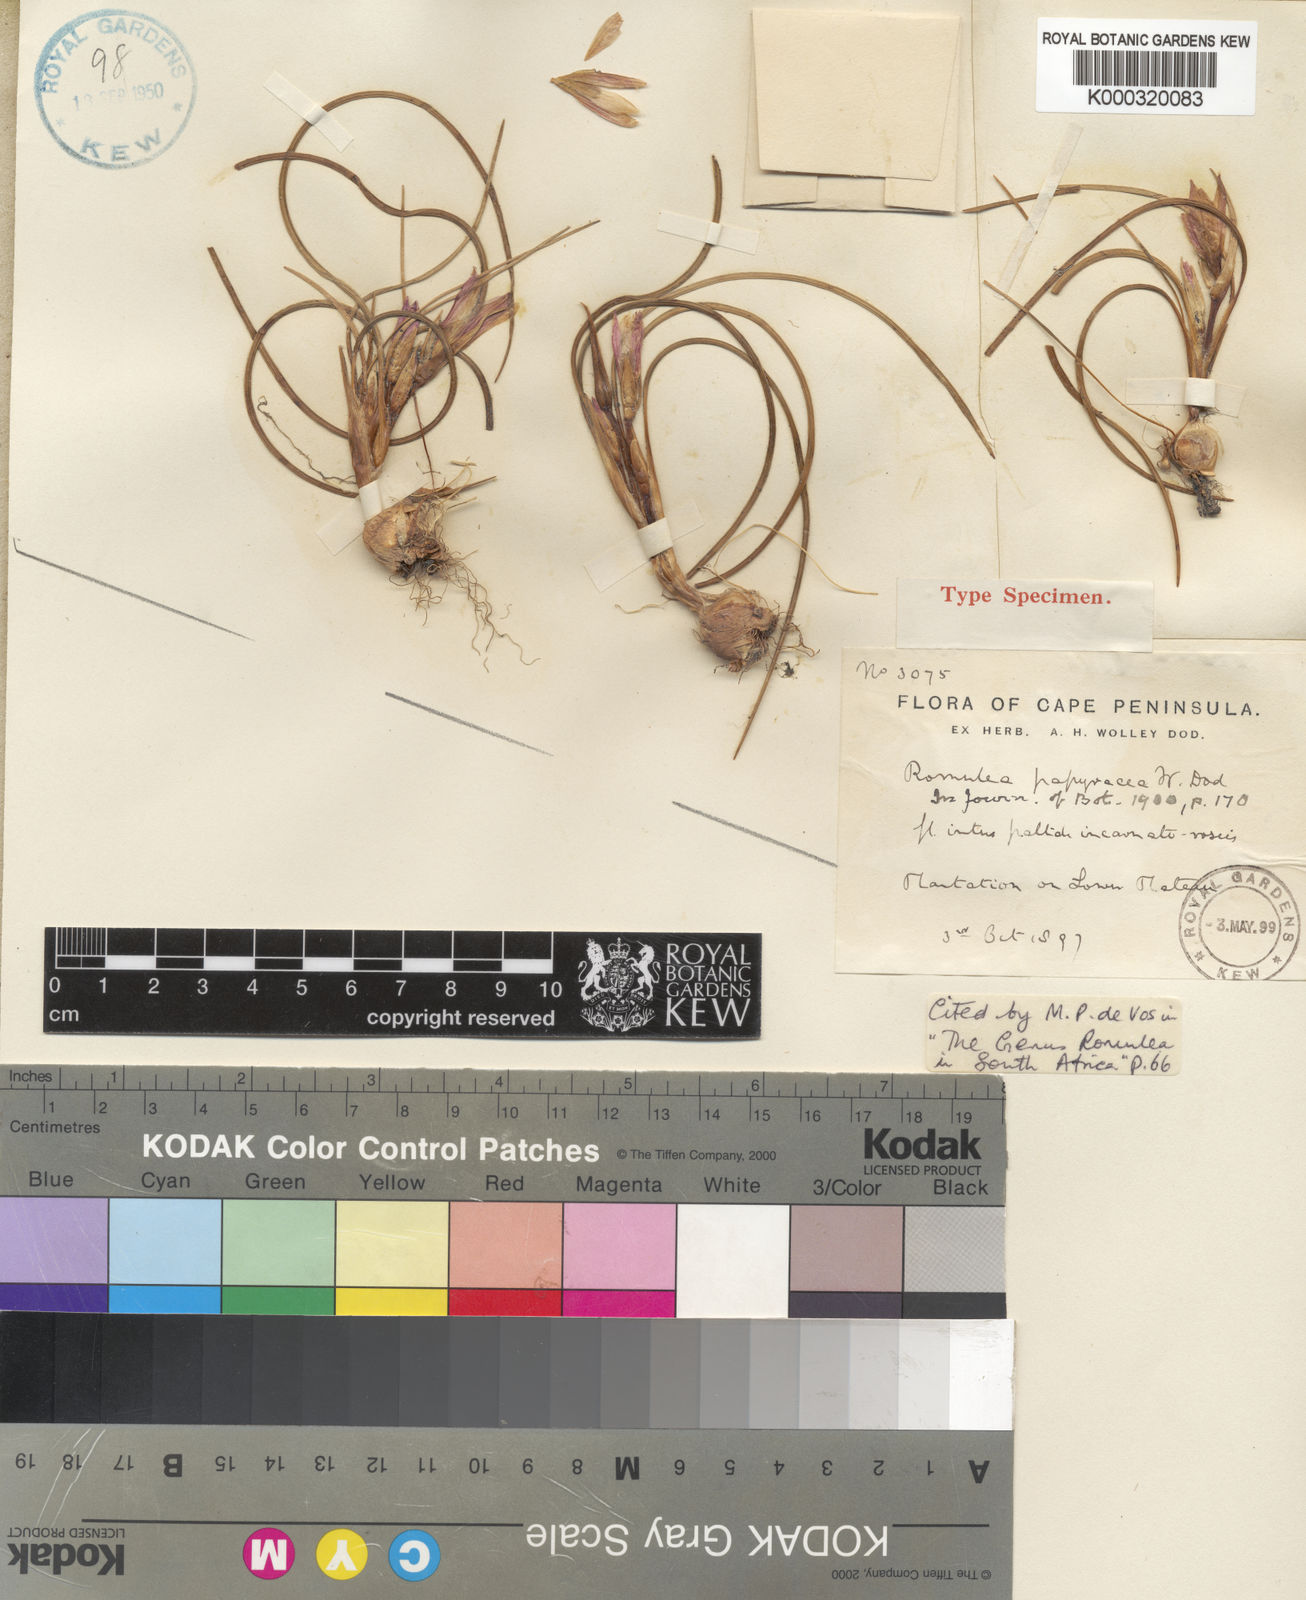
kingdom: Plantae
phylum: Tracheophyta
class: Liliopsida
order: Asparagales
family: Iridaceae
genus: Romulea
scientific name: Romulea papyracea
